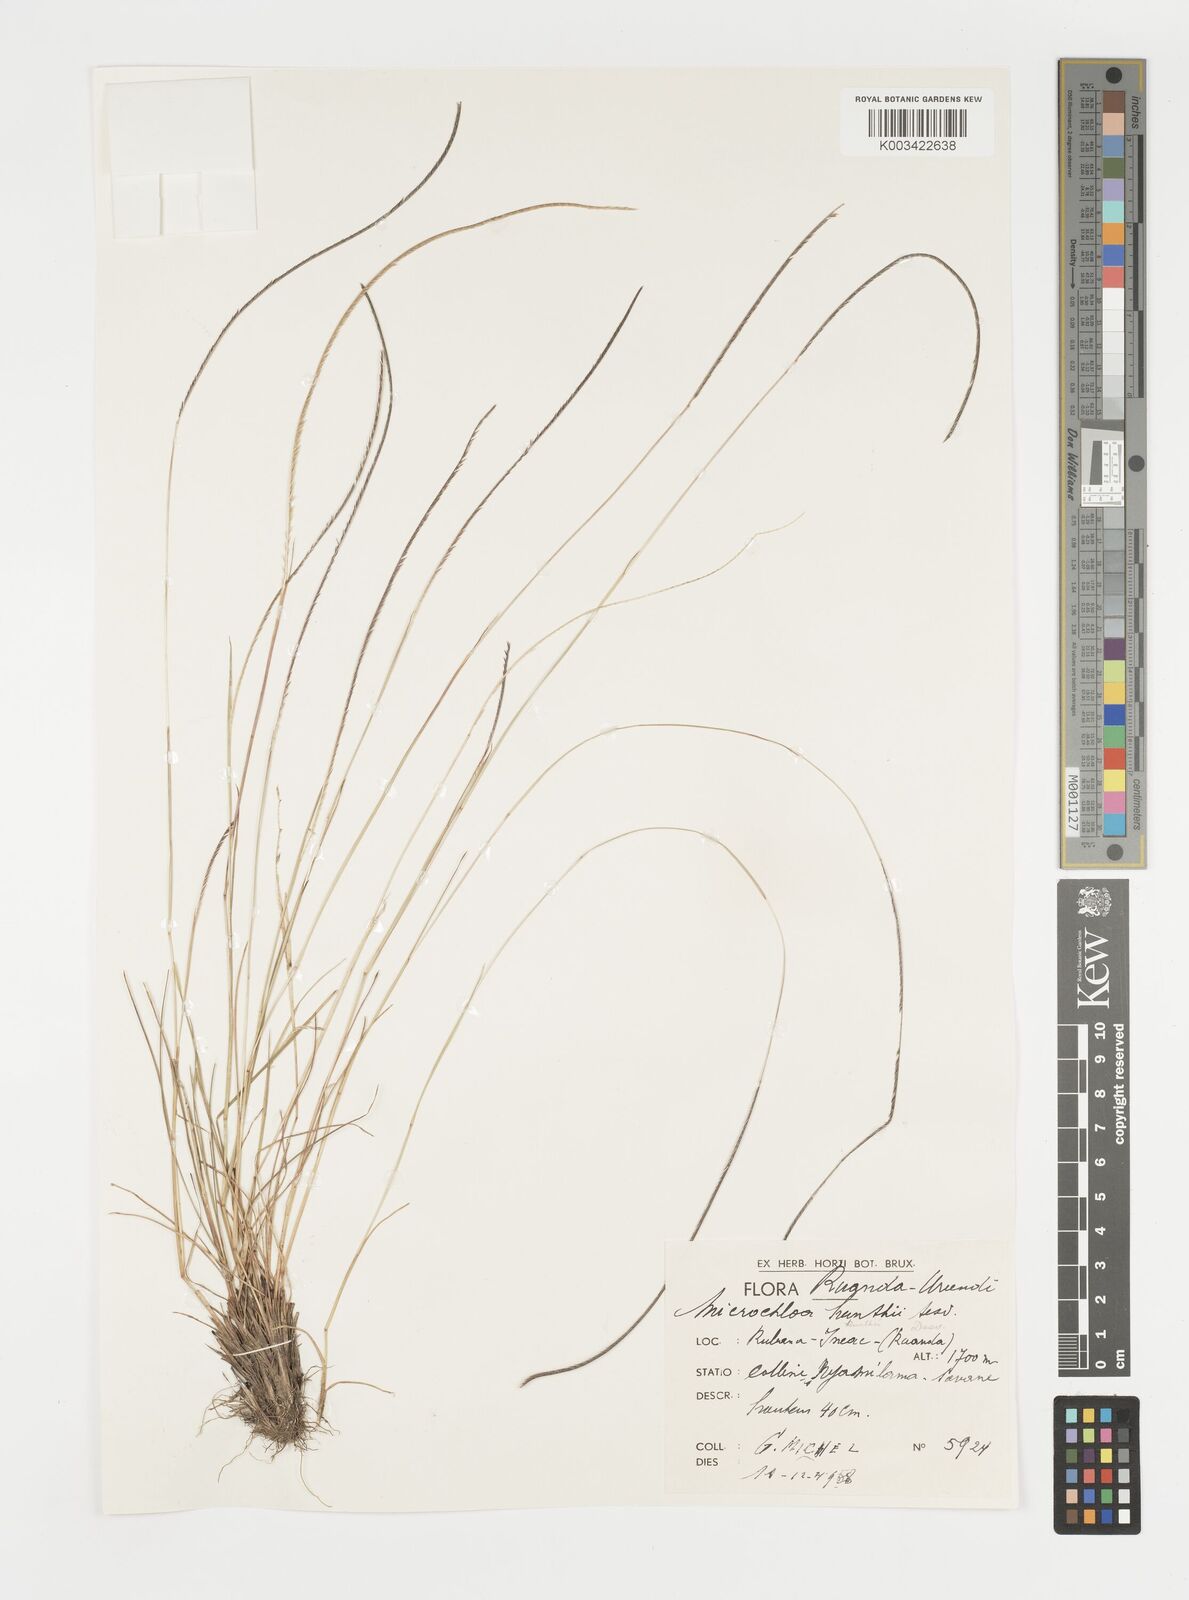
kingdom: Plantae
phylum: Tracheophyta
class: Liliopsida
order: Poales
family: Poaceae
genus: Microchloa
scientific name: Microchloa kunthii
